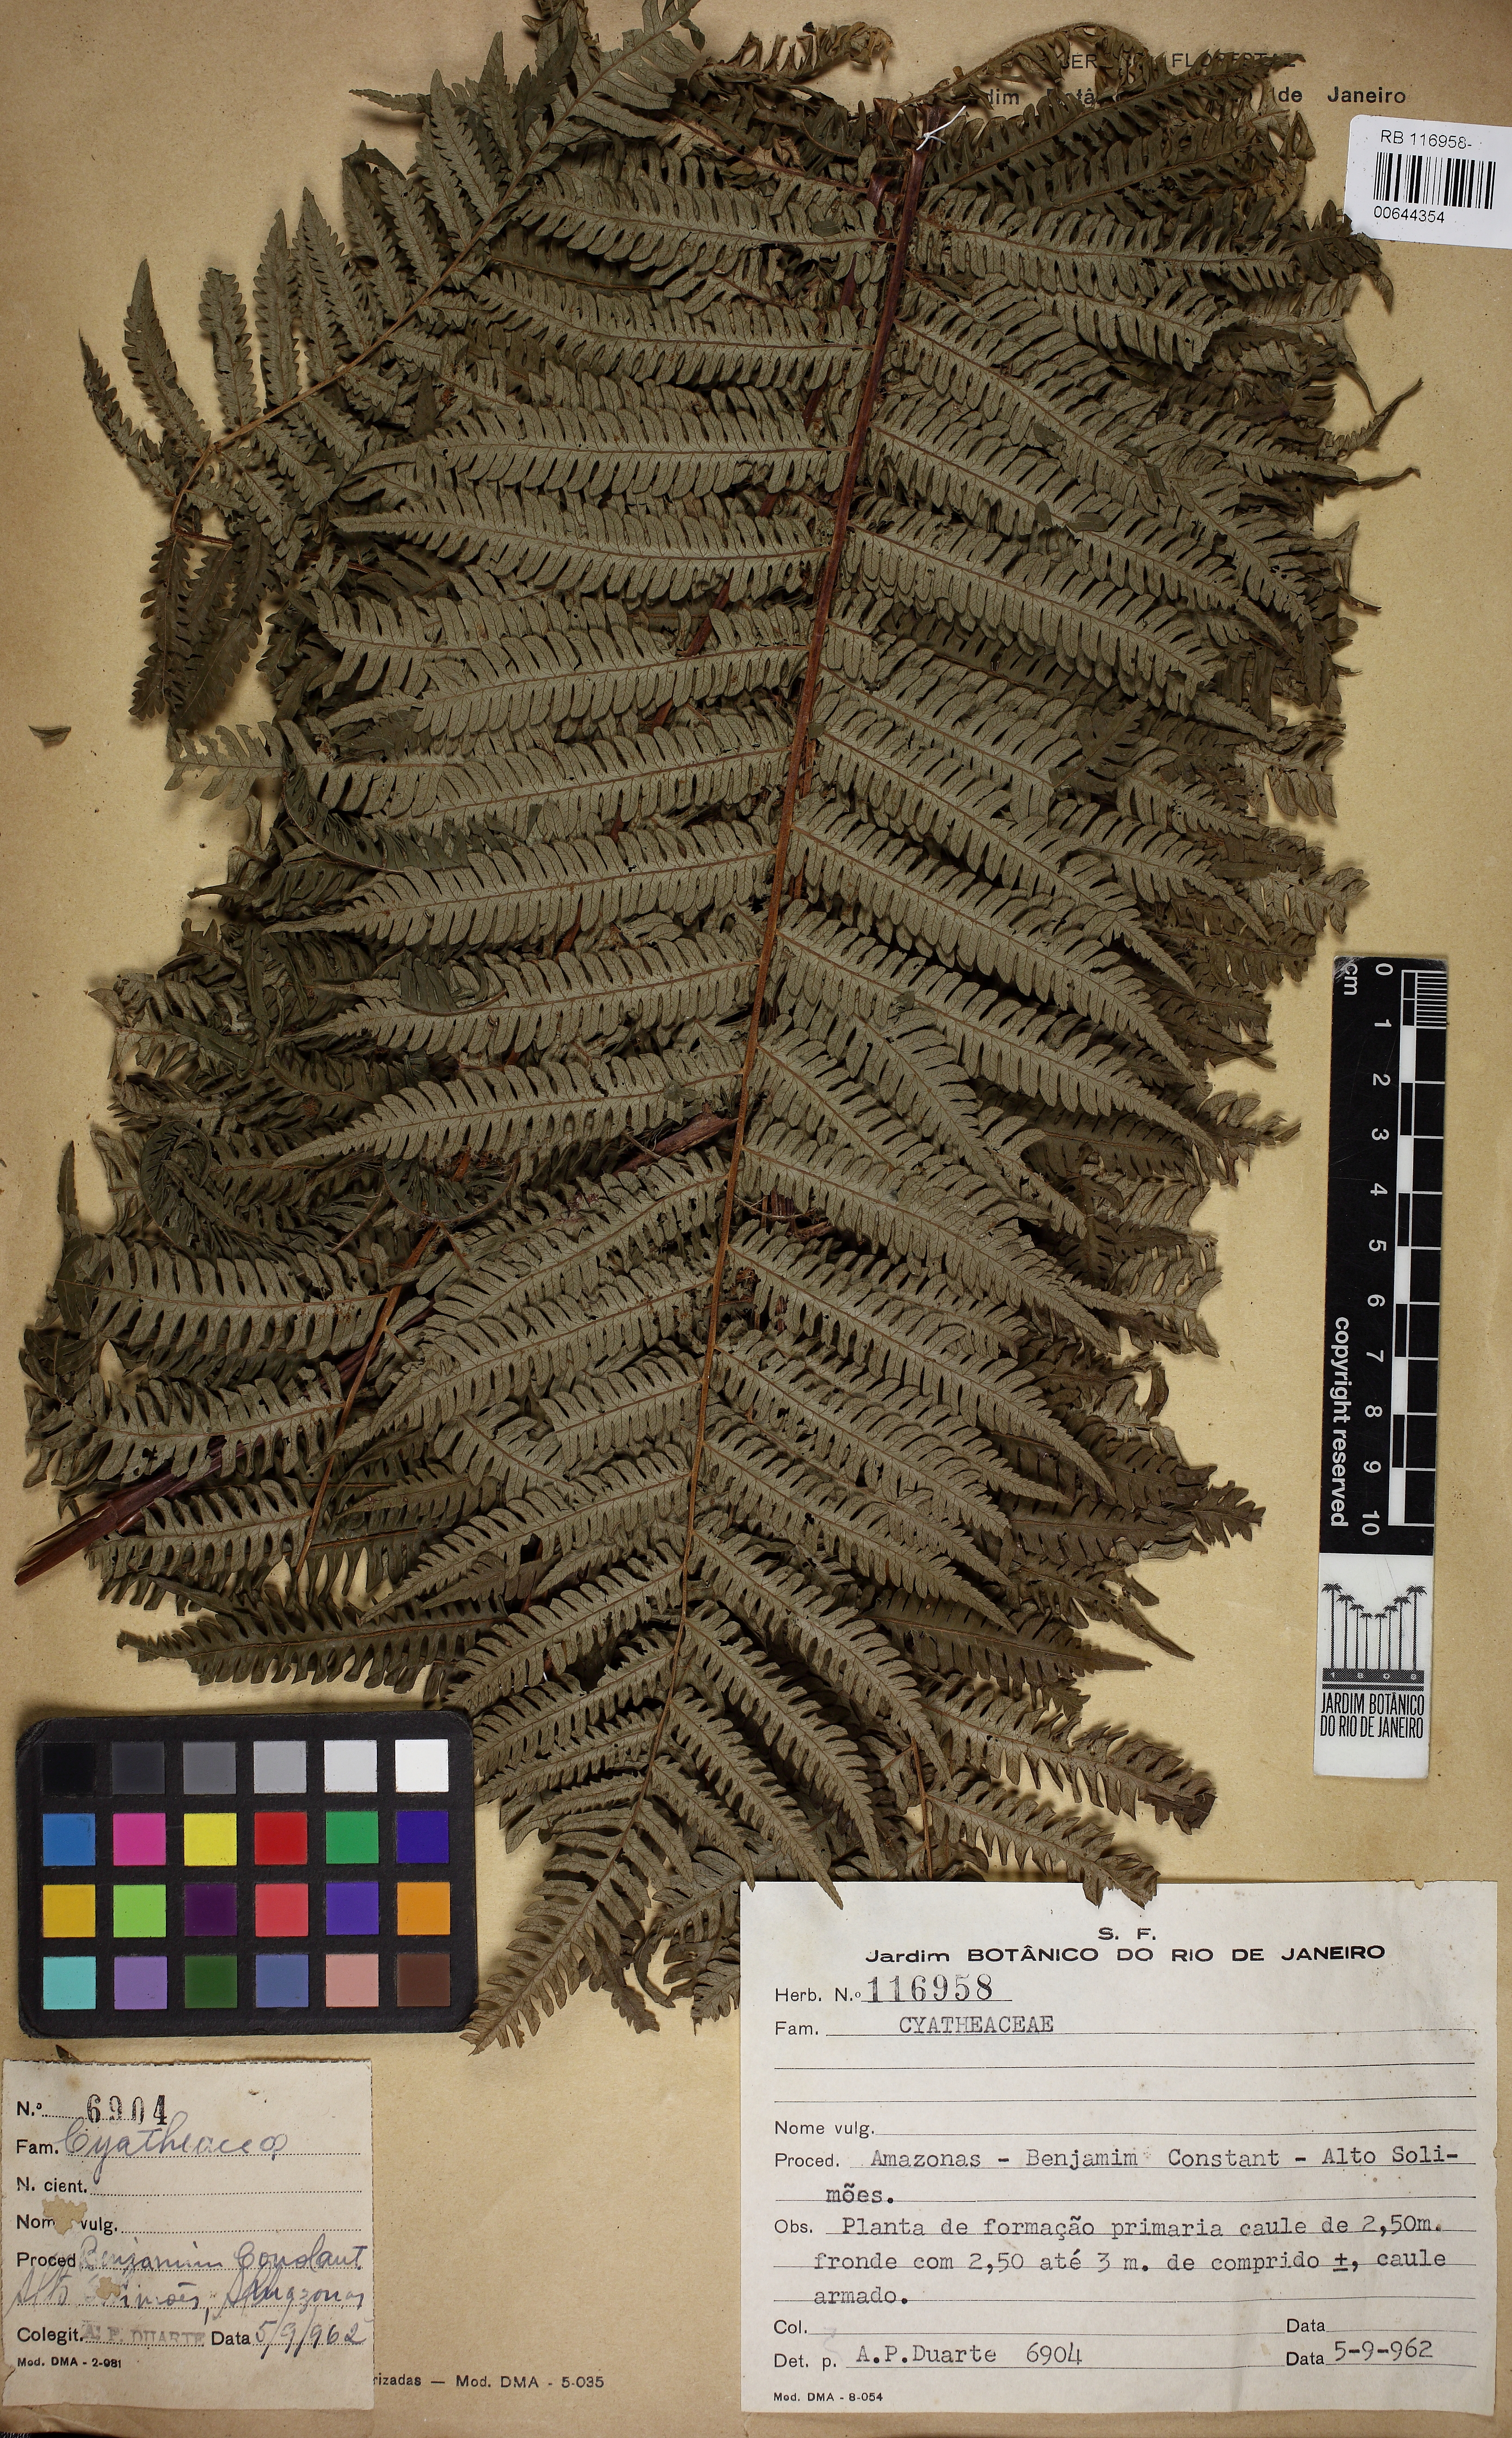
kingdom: Plantae
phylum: Tracheophyta
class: Polypodiopsida
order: Cyatheales
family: Cyatheaceae
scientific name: Cyatheaceae
